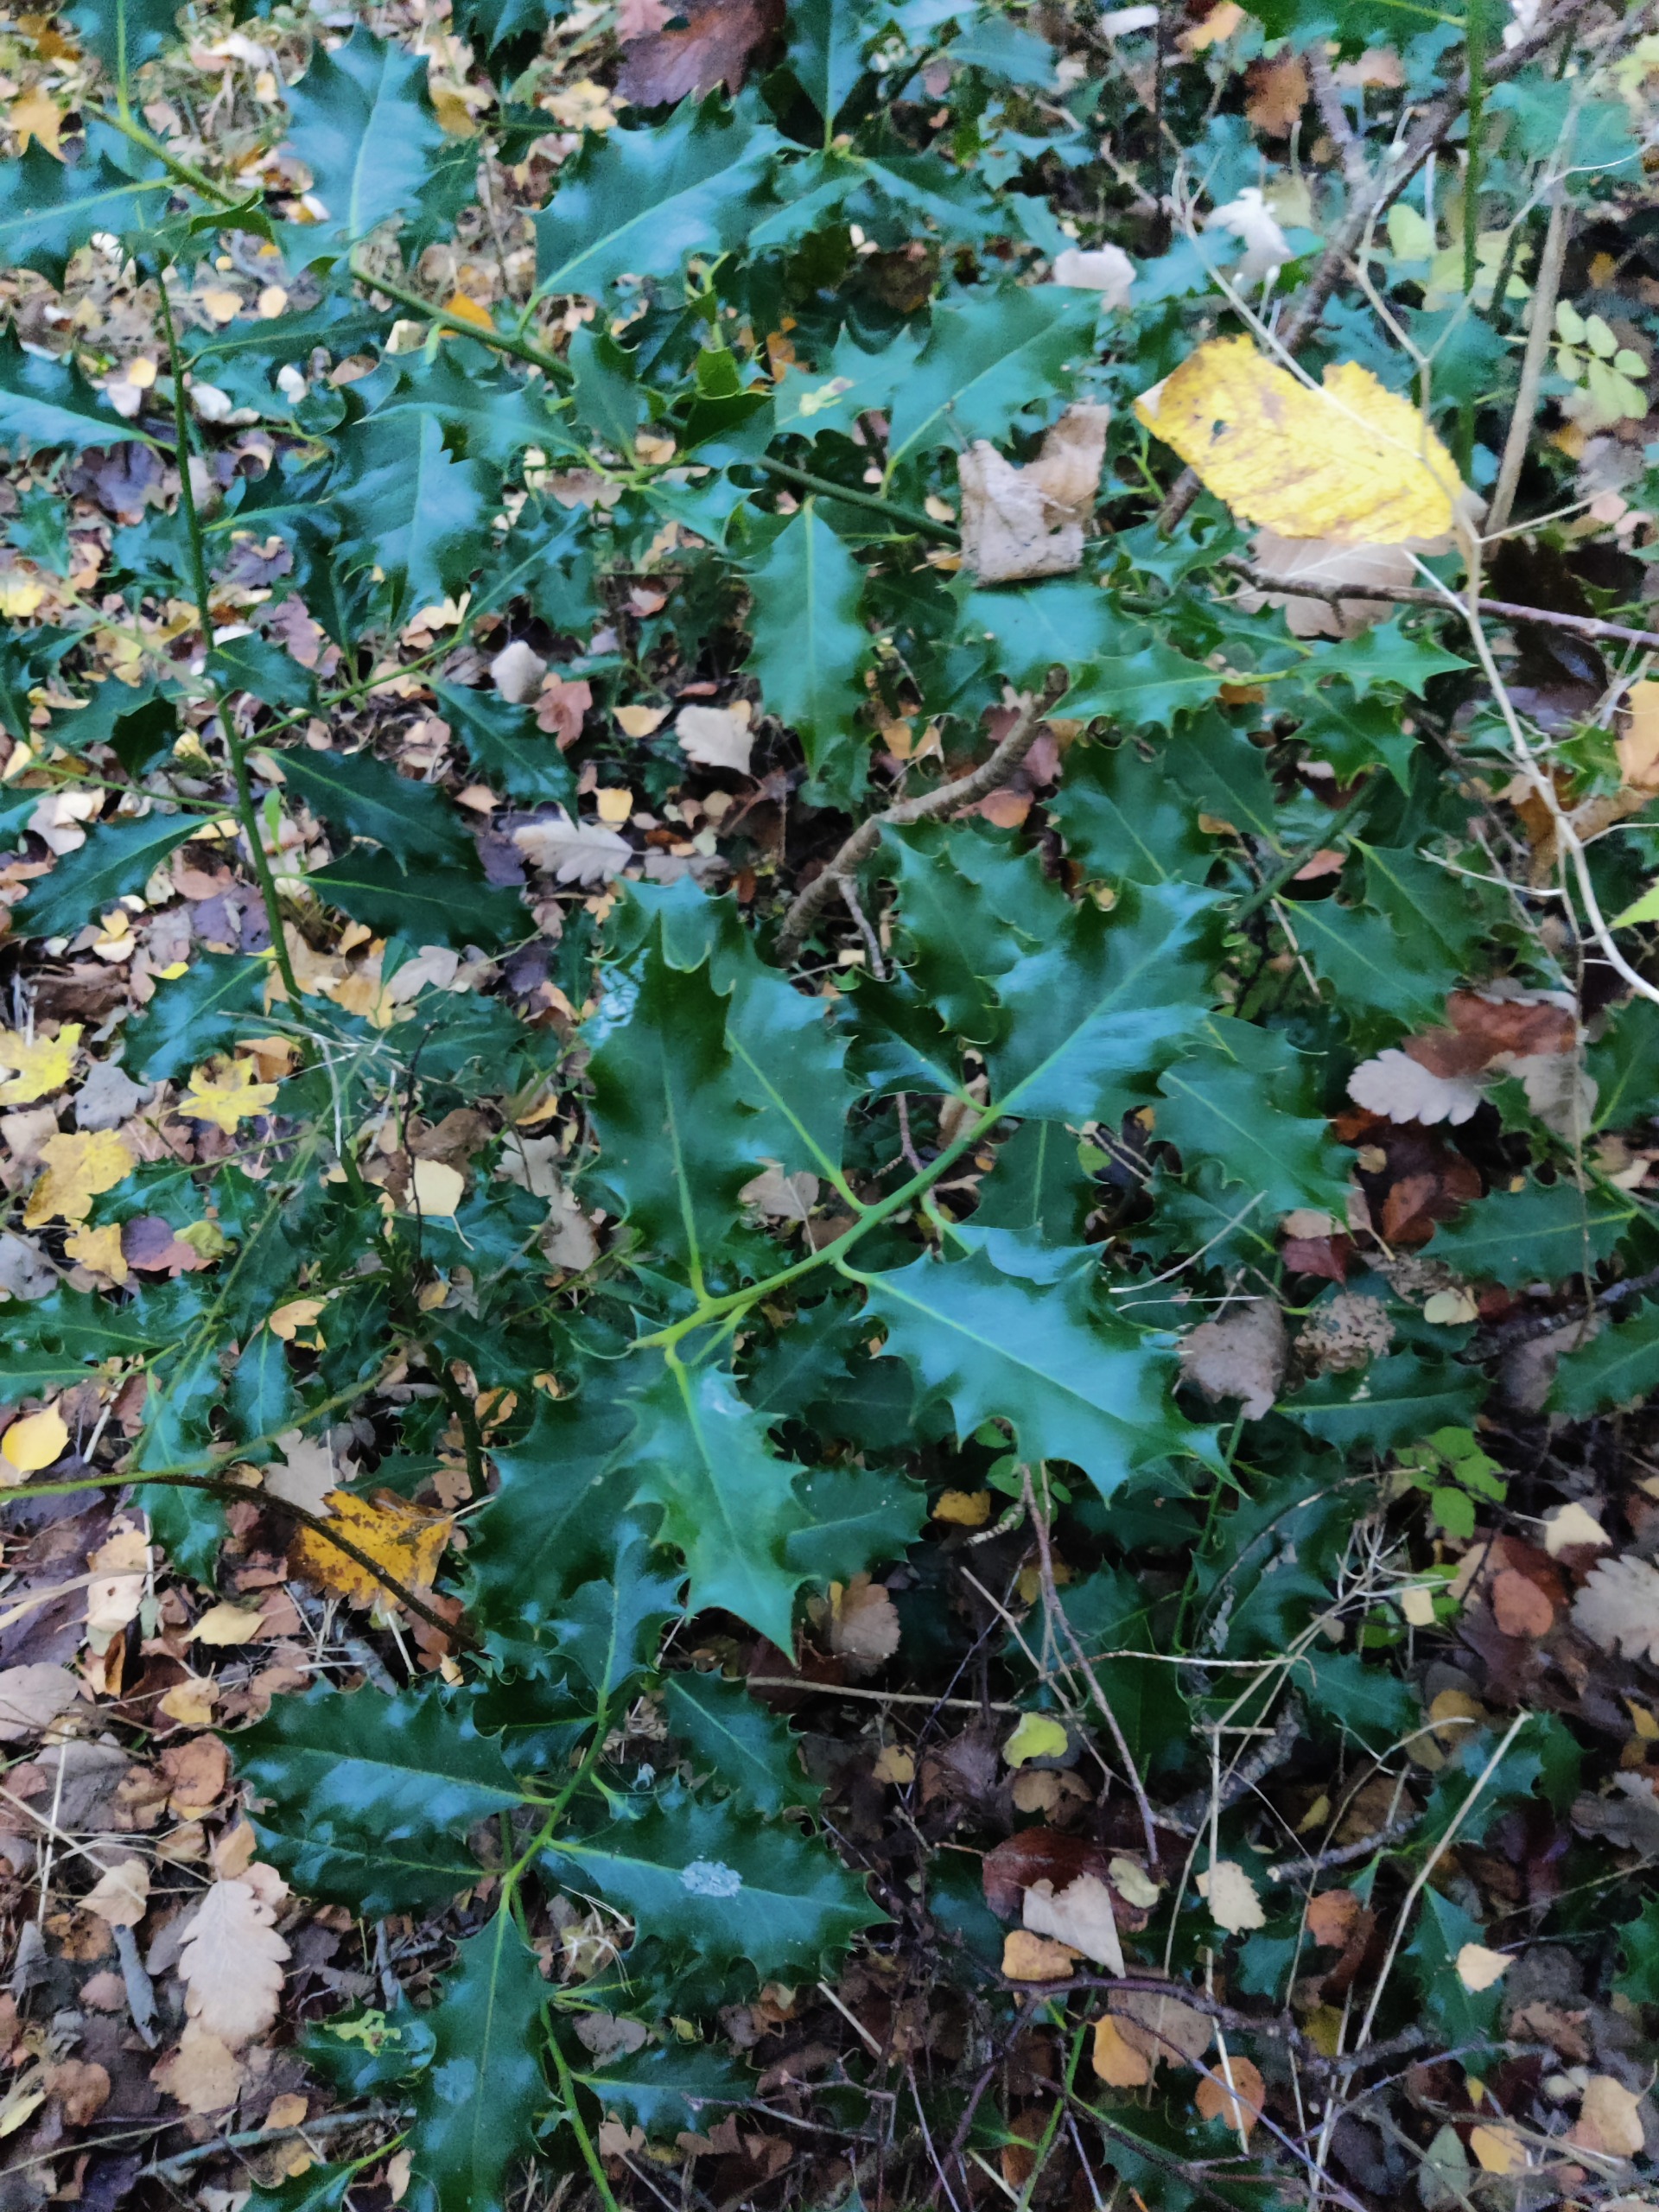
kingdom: Plantae
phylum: Tracheophyta
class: Magnoliopsida
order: Aquifoliales
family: Aquifoliaceae
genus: Ilex
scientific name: Ilex aquifolium
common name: Kristtorn
